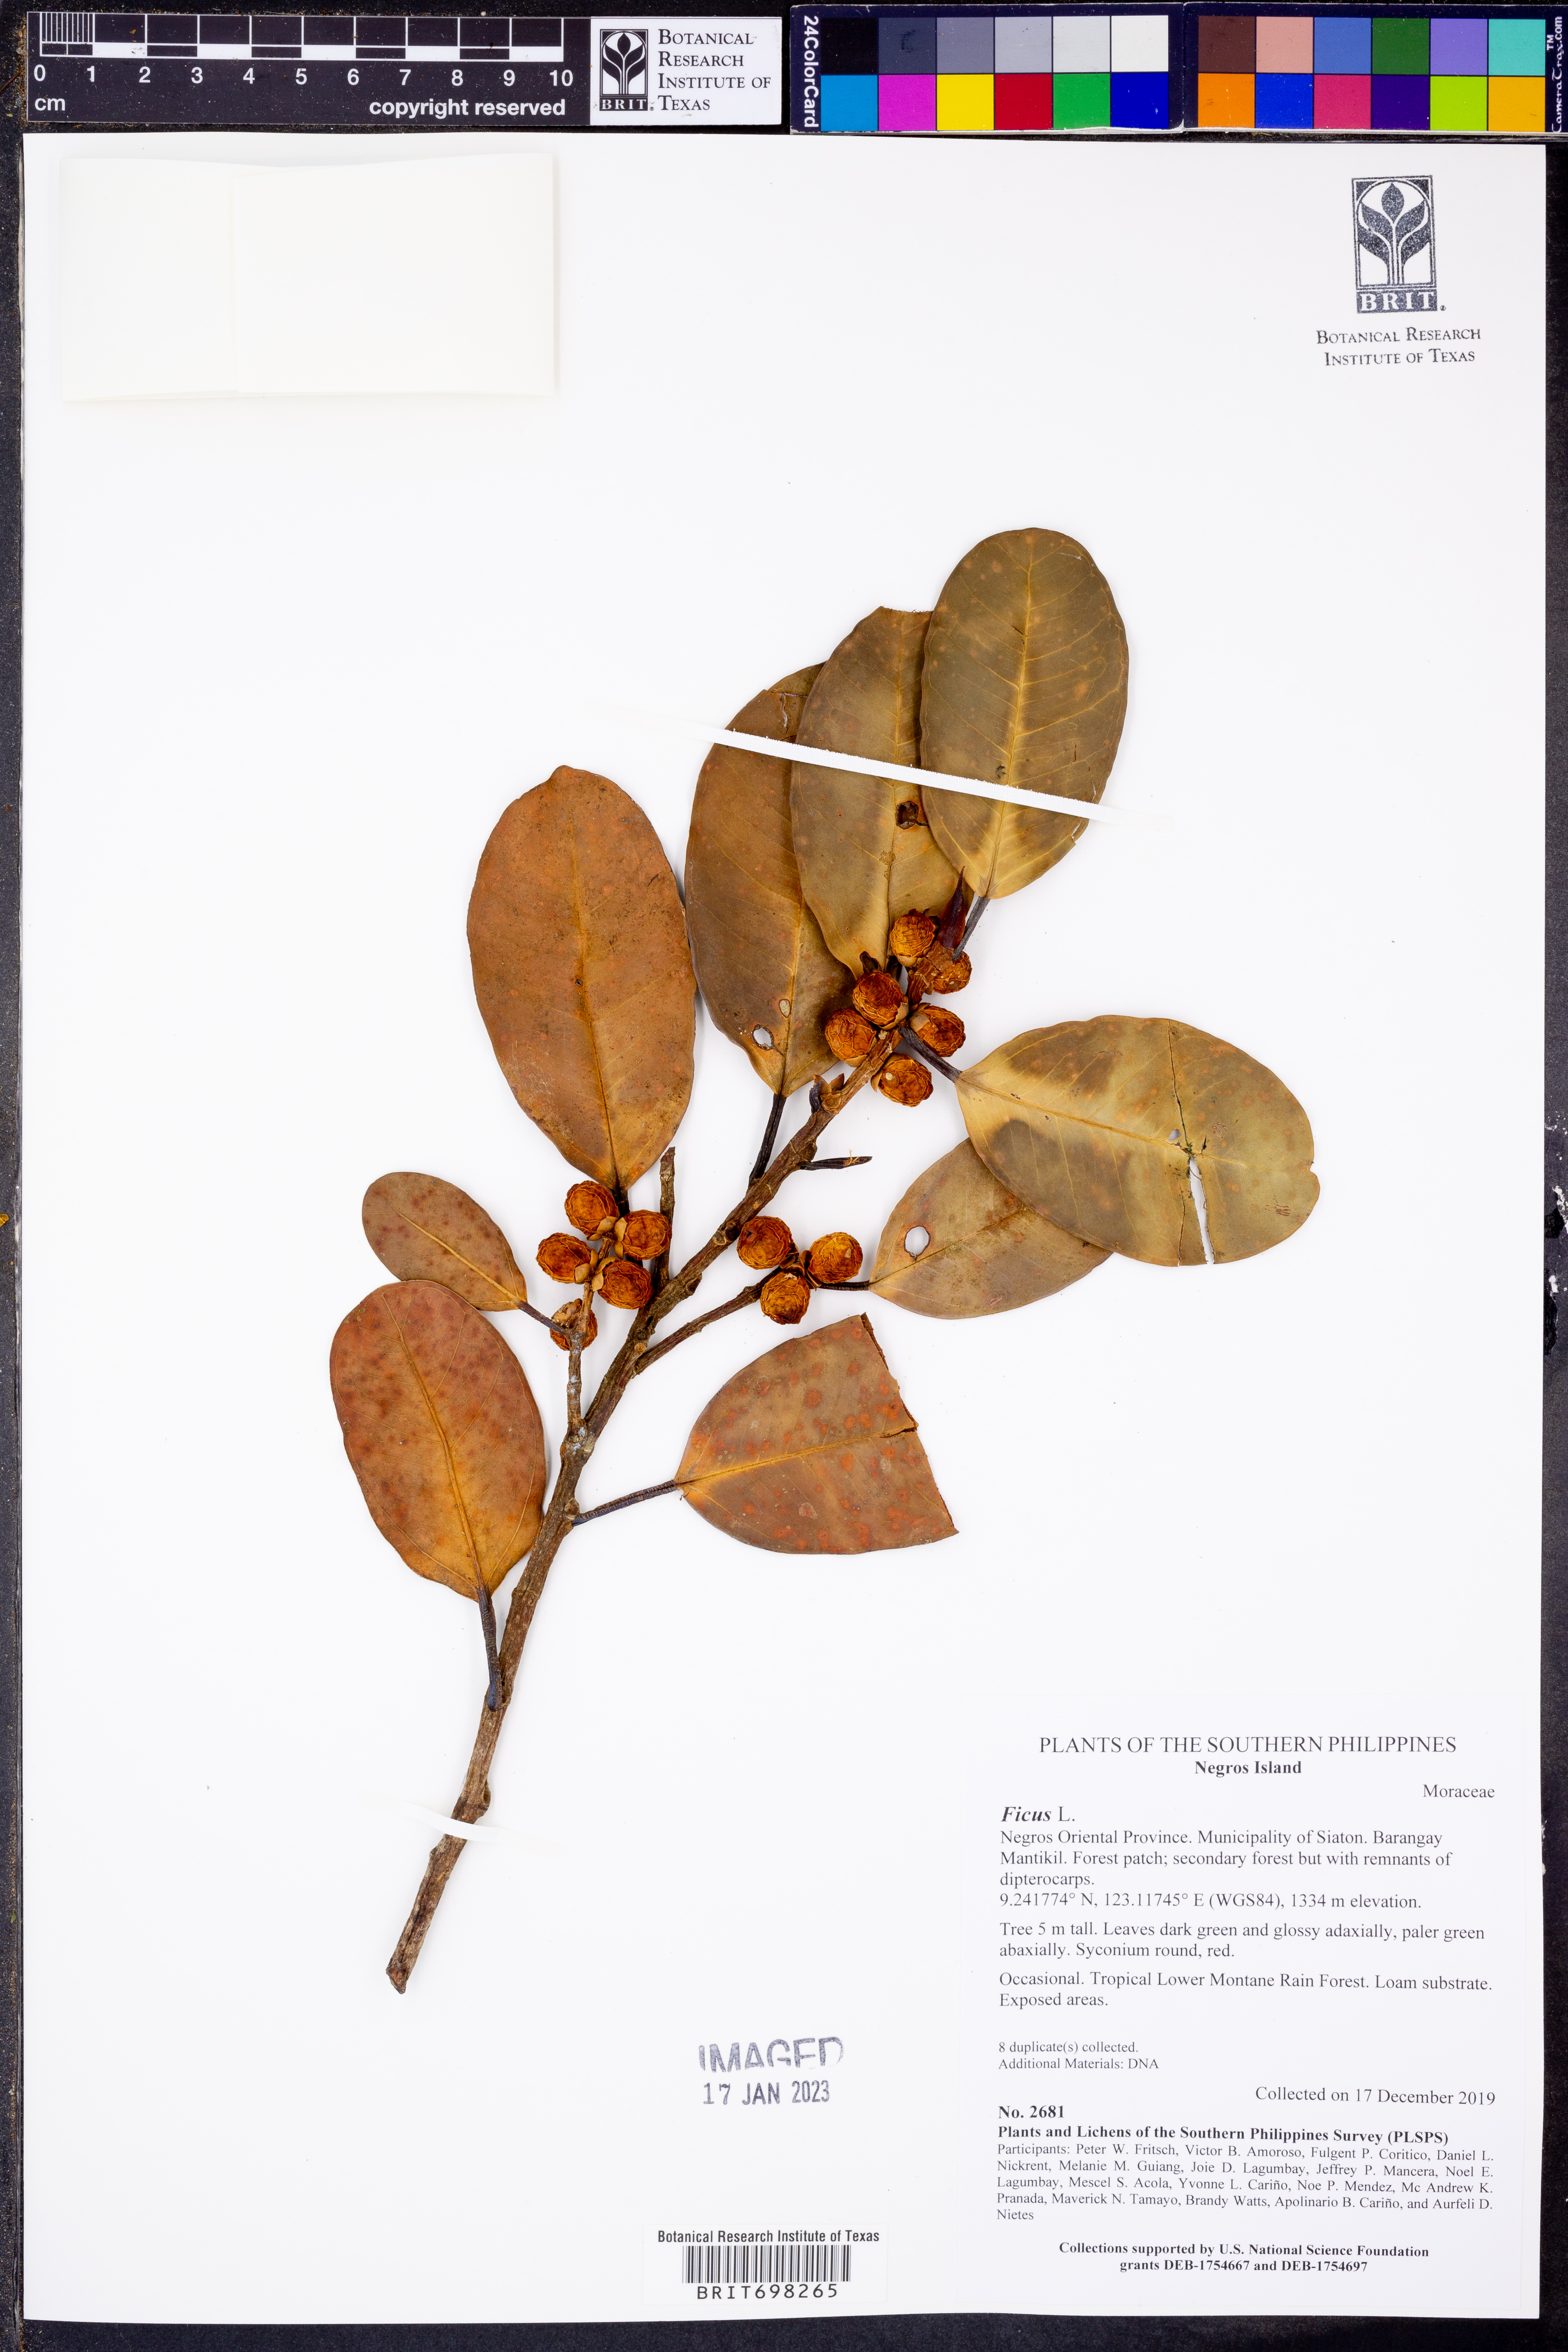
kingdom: Plantae
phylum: Tracheophyta
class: Magnoliopsida
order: Rosales
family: Moraceae
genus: Ficus
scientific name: Ficus
